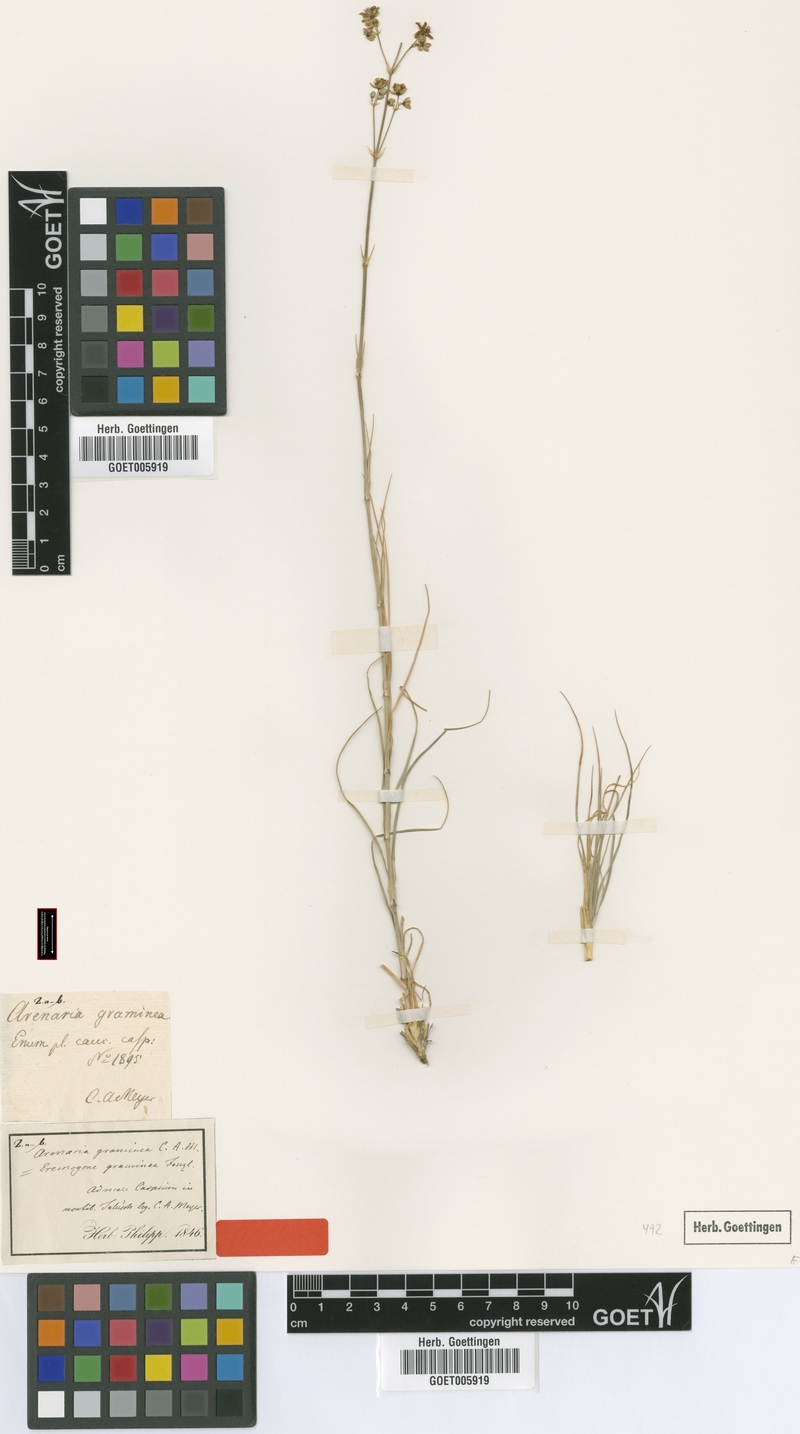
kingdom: Plantae
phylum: Tracheophyta
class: Magnoliopsida
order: Caryophyllales
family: Caryophyllaceae
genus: Eremogone
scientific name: Eremogone graminea
